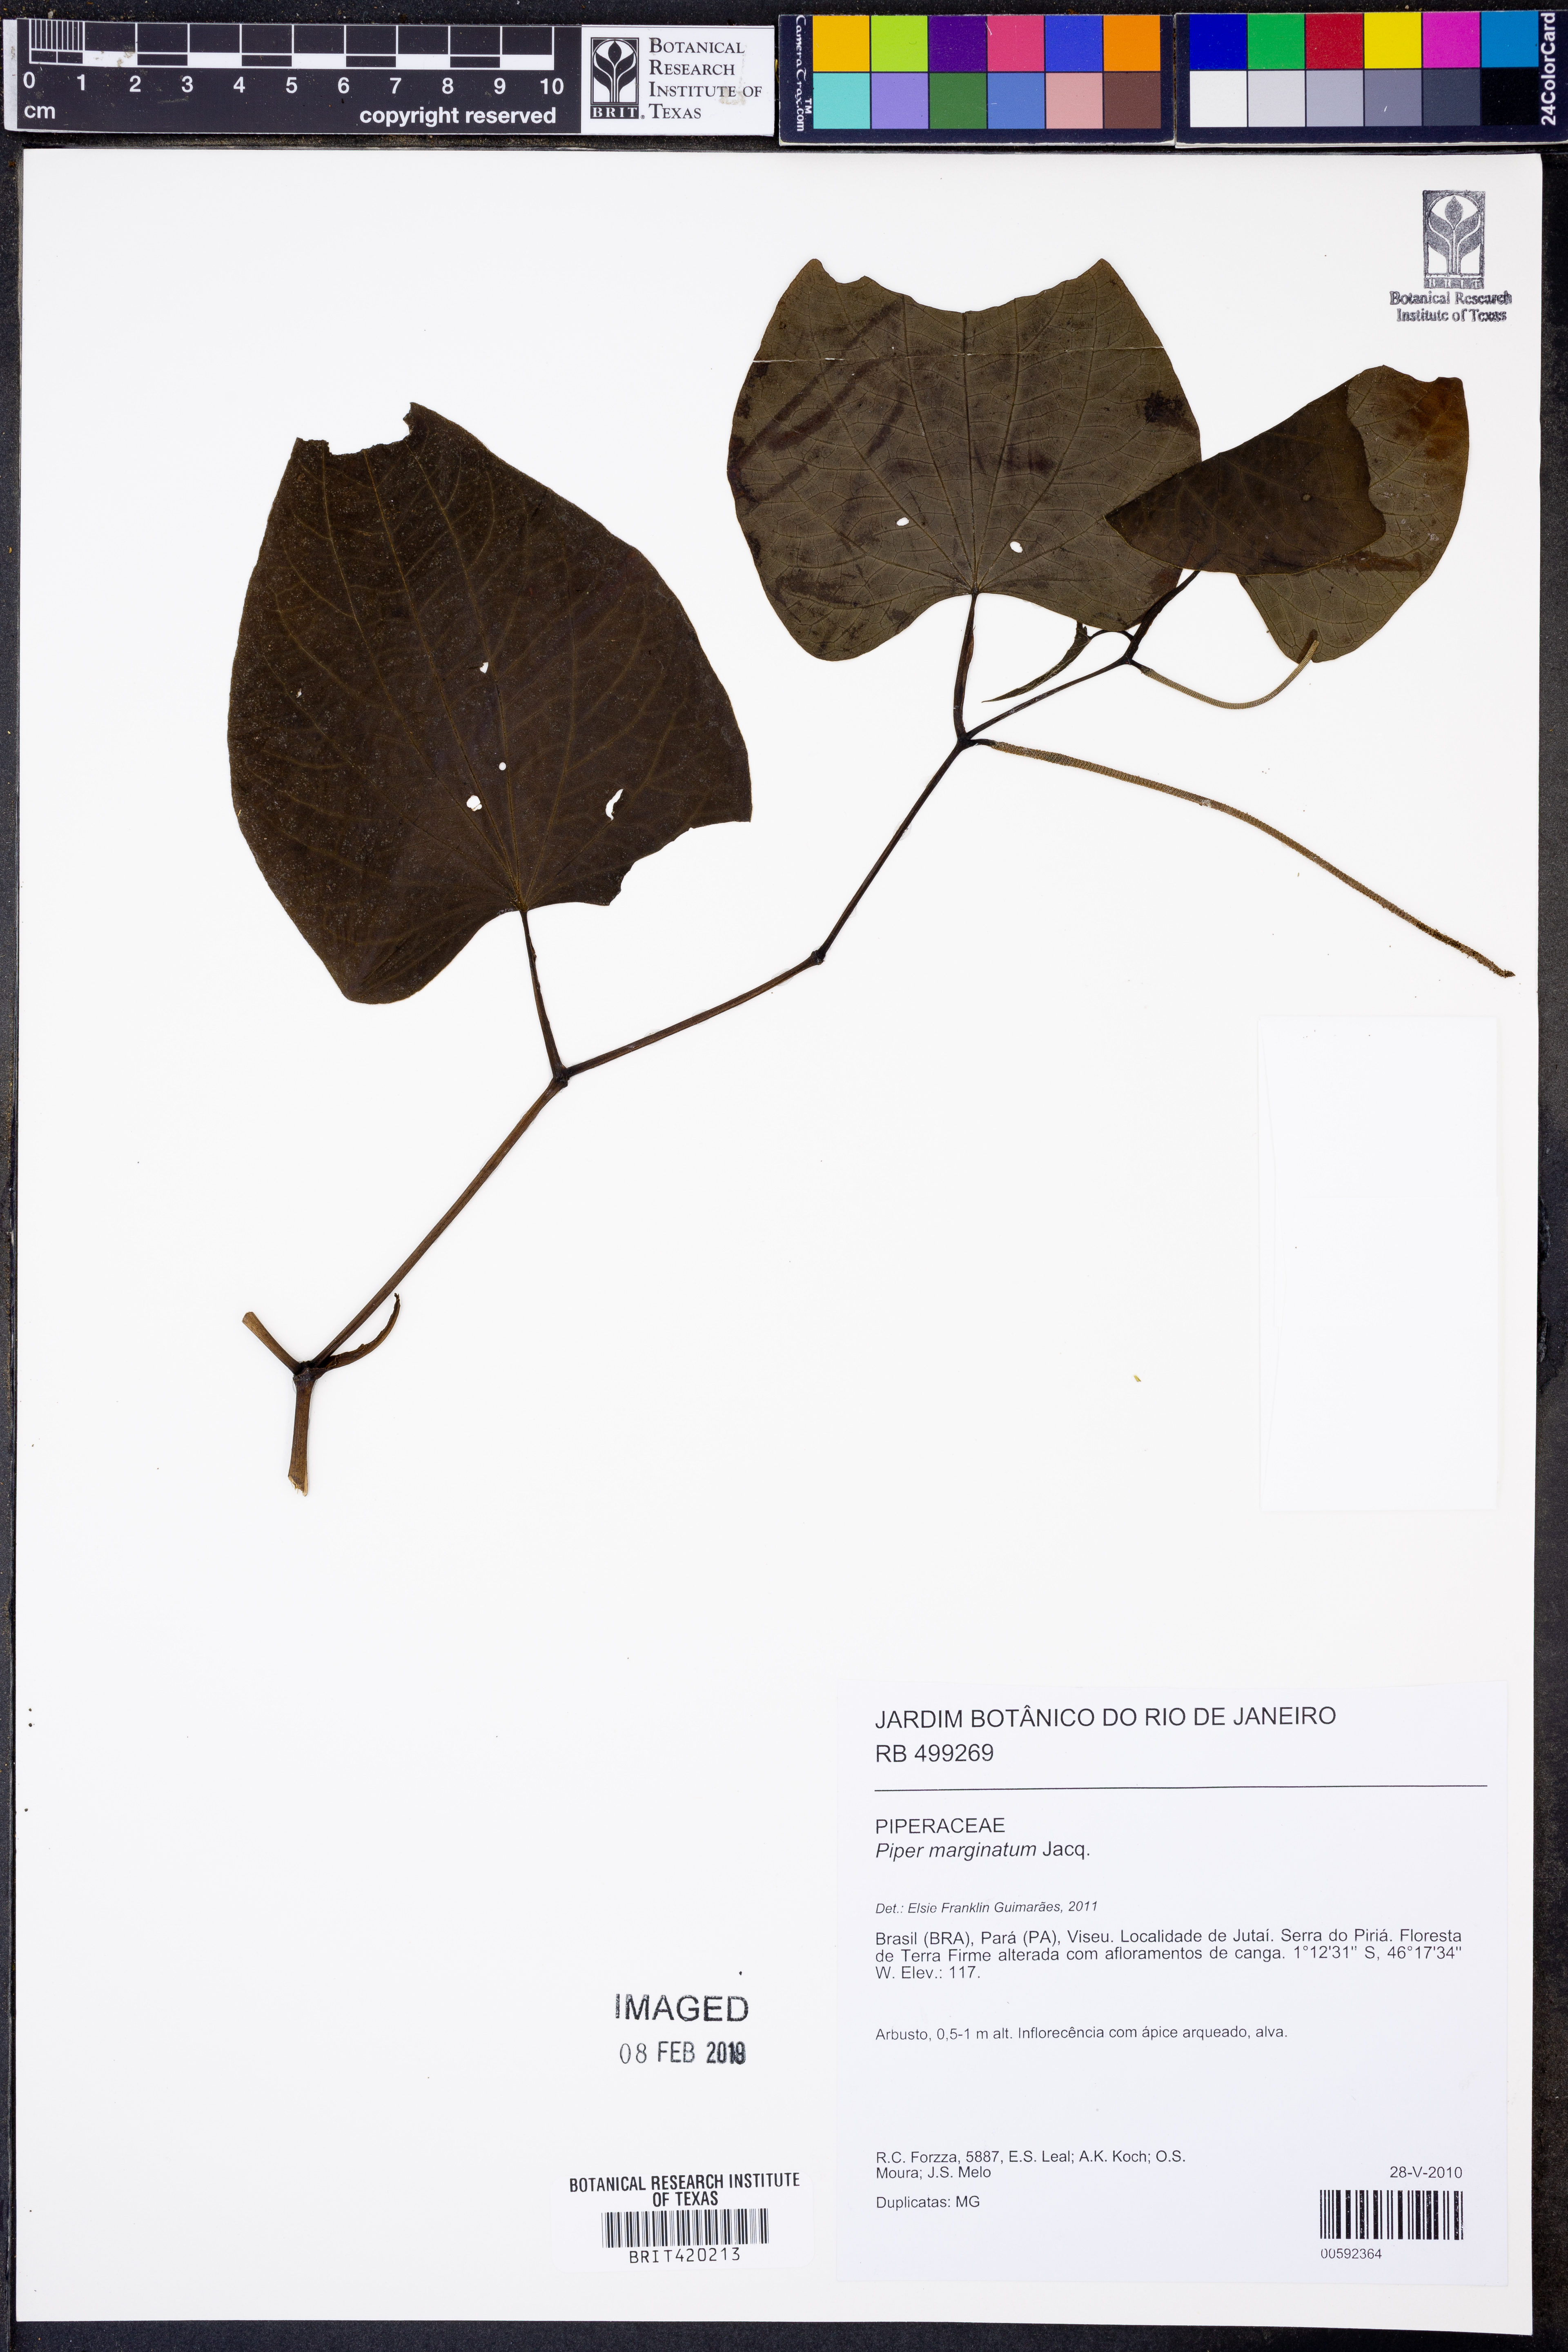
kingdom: Plantae
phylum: Tracheophyta
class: Magnoliopsida
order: Piperales
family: Piperaceae
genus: Piper
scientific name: Piper marginatum
